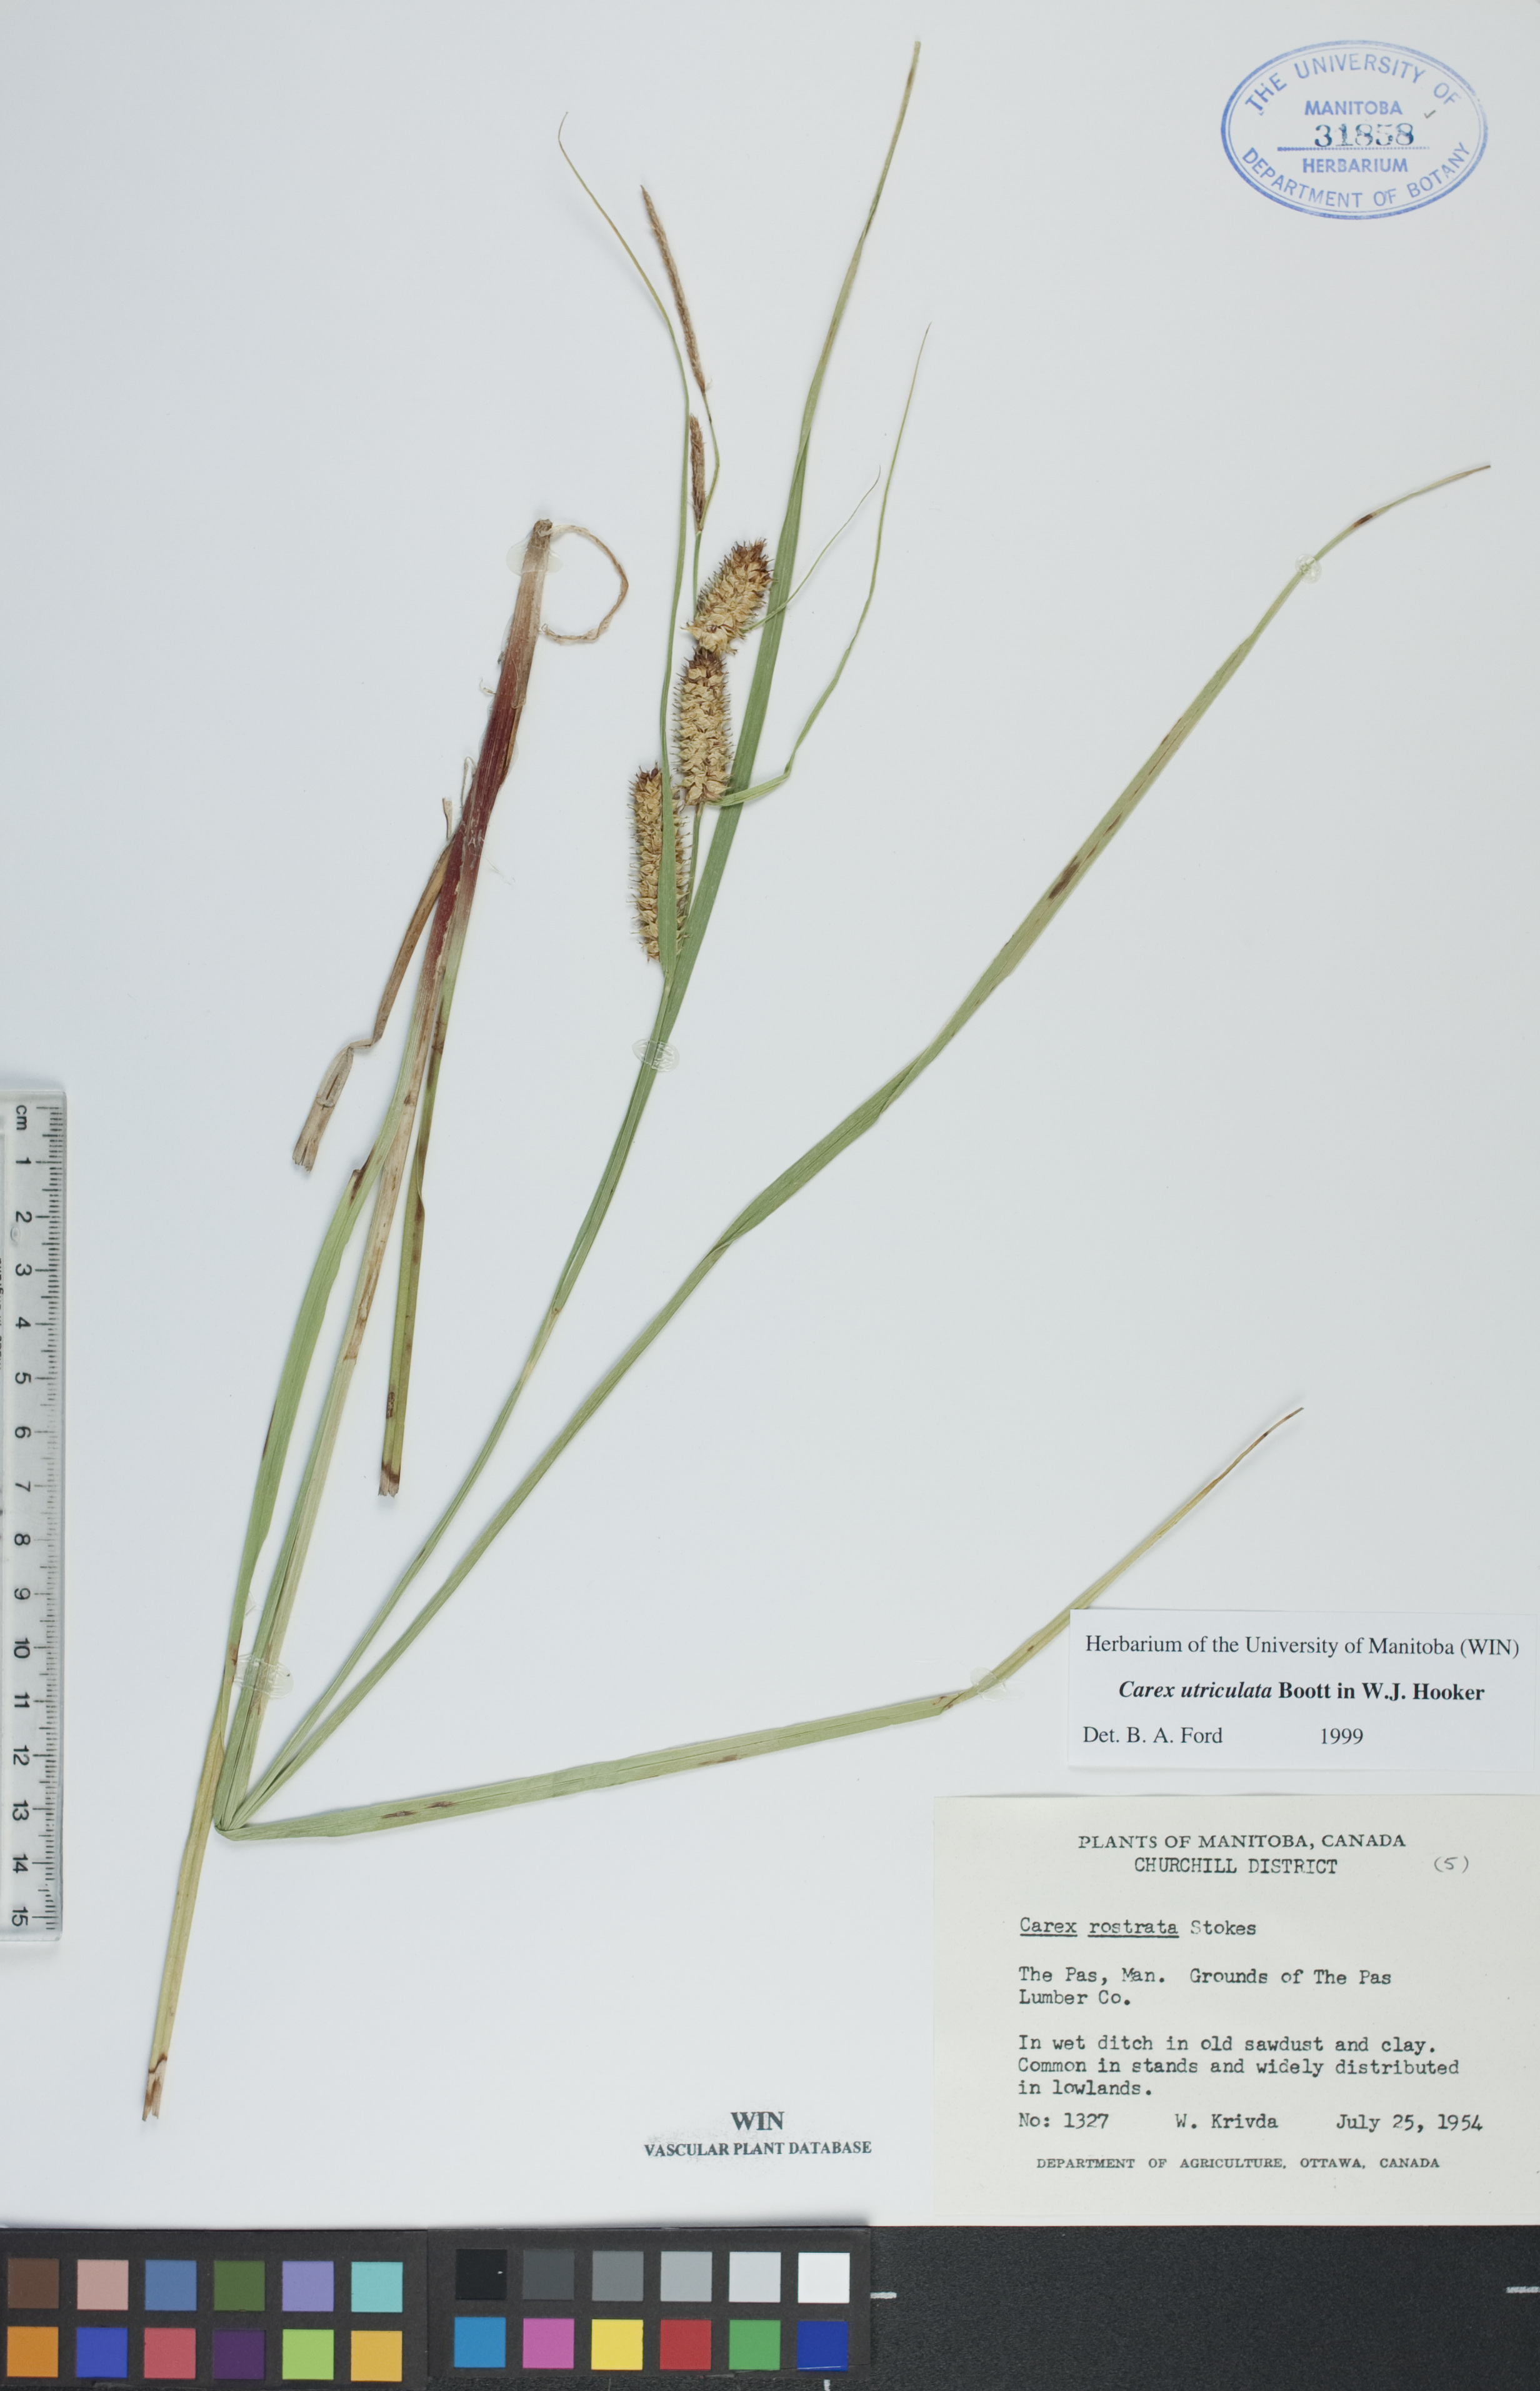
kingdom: Plantae
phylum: Tracheophyta
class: Liliopsida
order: Poales
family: Cyperaceae
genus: Carex
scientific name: Carex utriculata
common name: Beaked sedge
